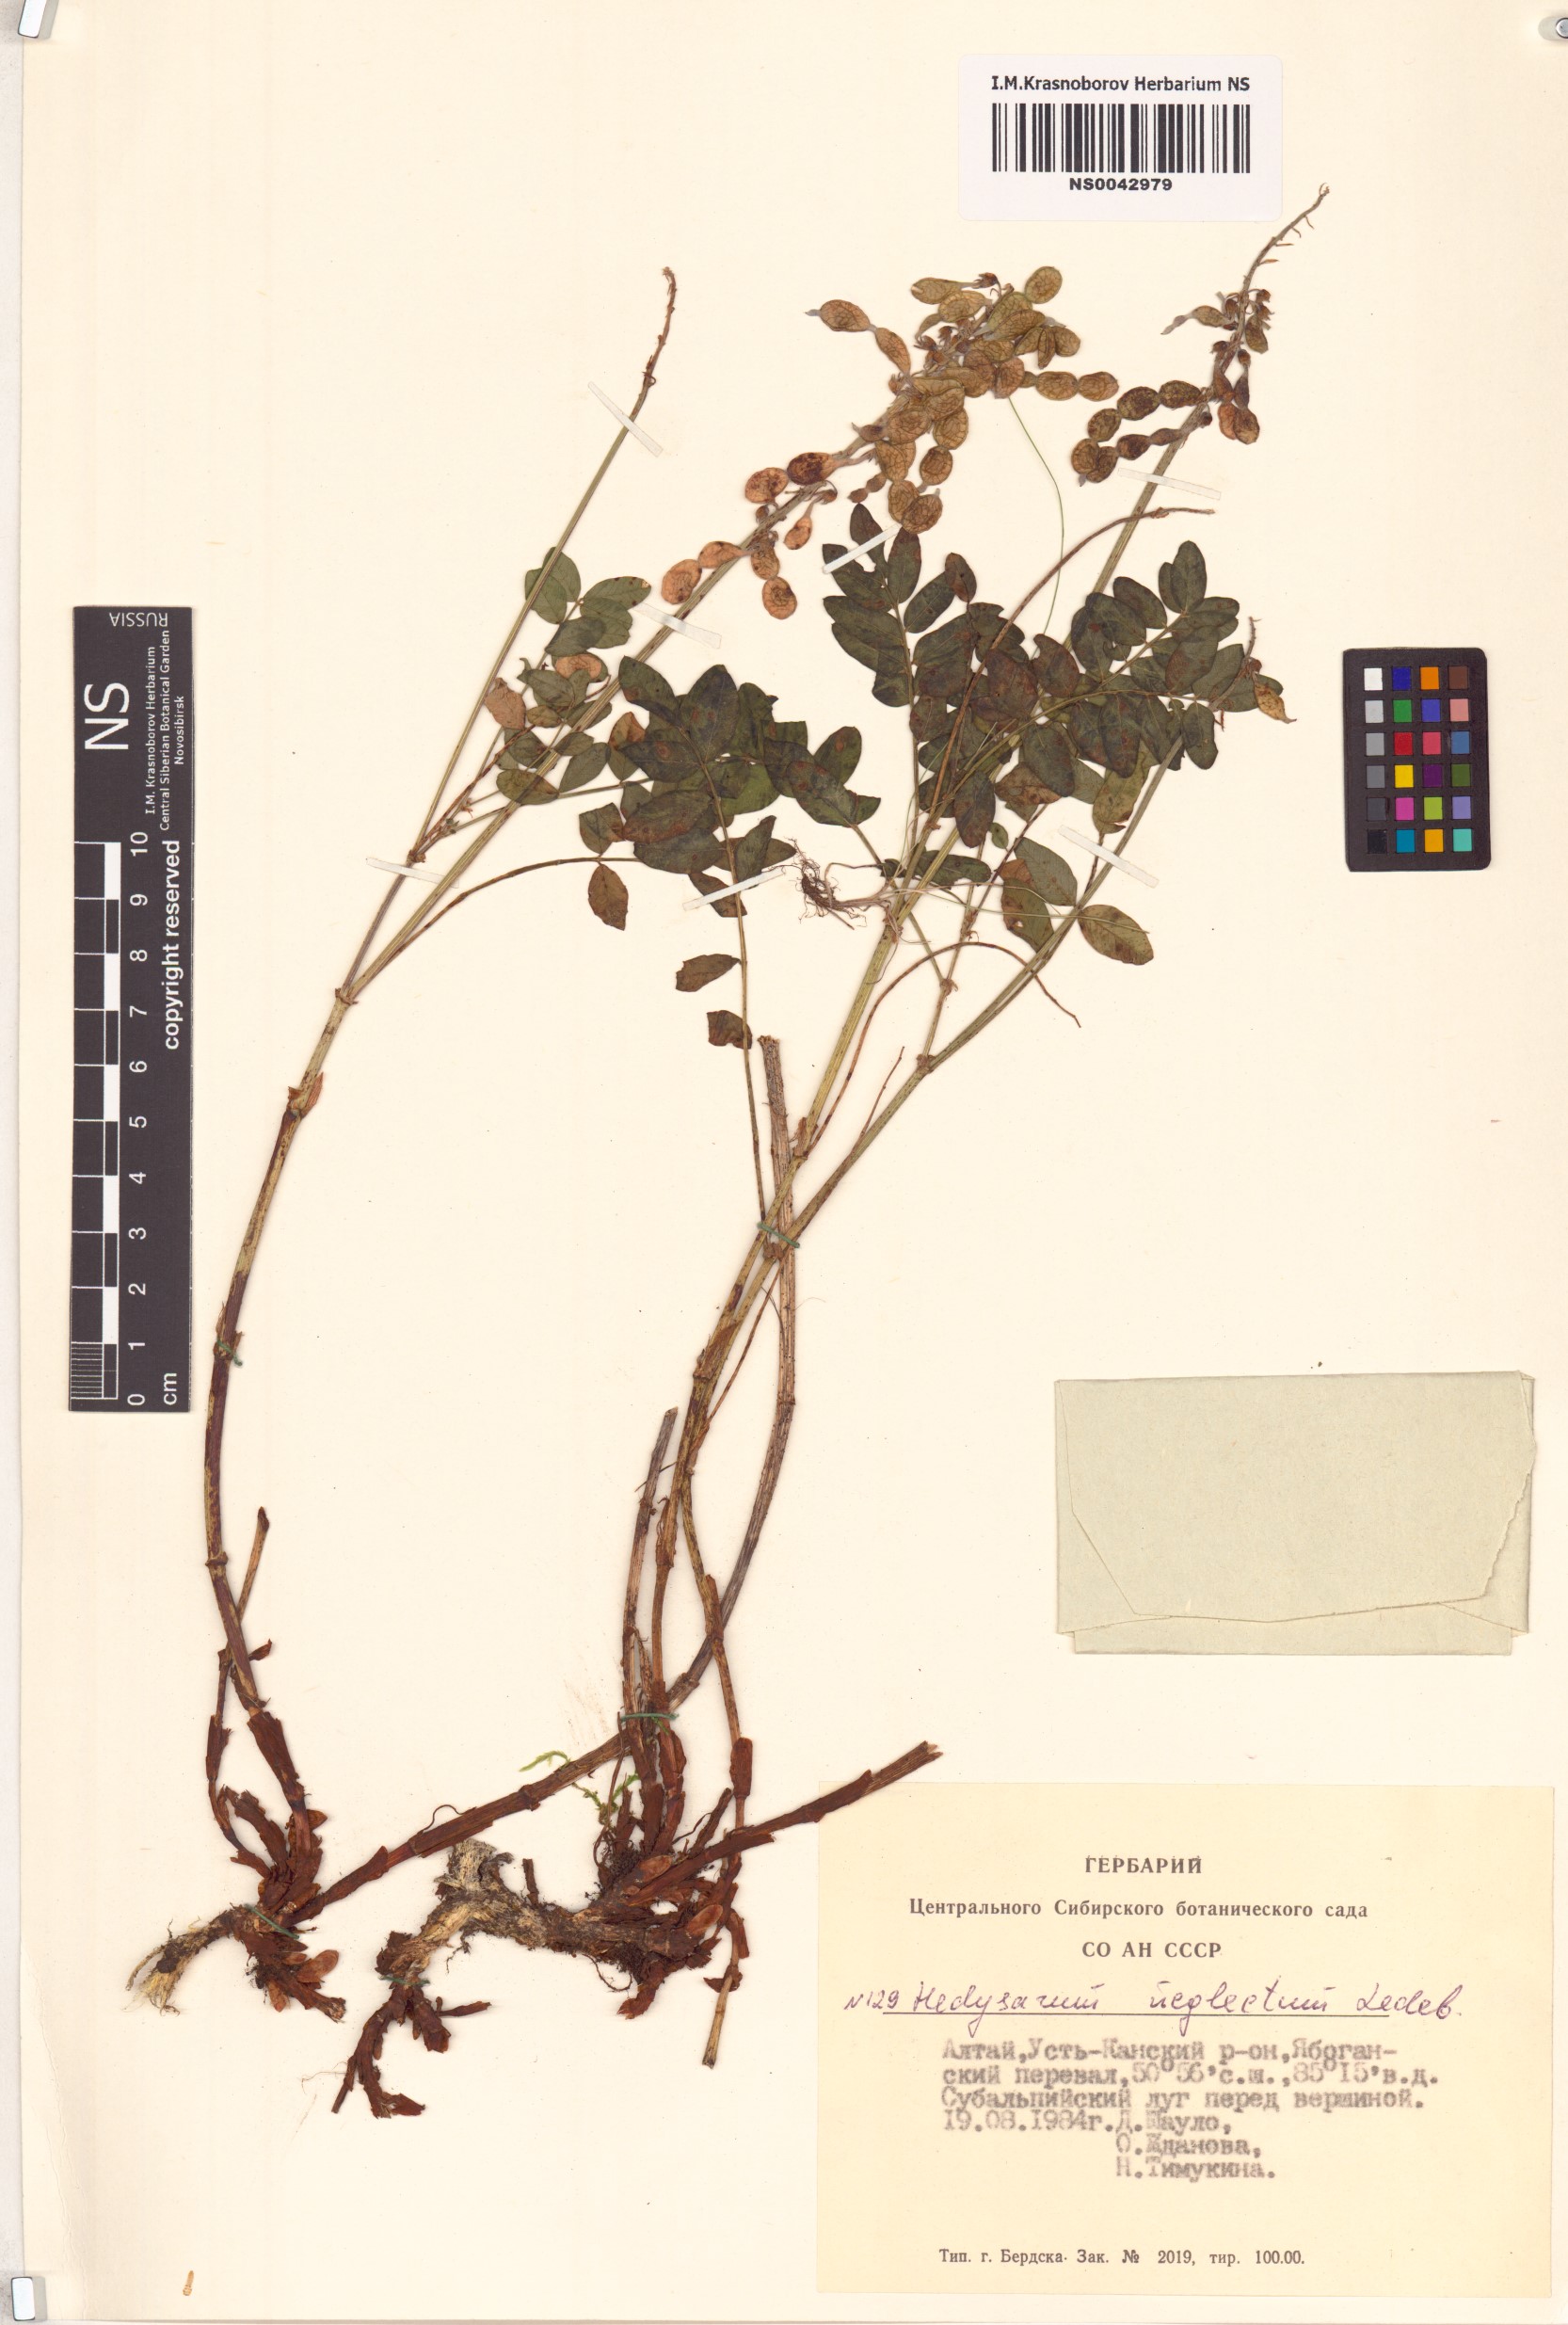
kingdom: Plantae
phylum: Tracheophyta
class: Magnoliopsida
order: Fabales
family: Fabaceae
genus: Hedysarum
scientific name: Hedysarum neglectum
